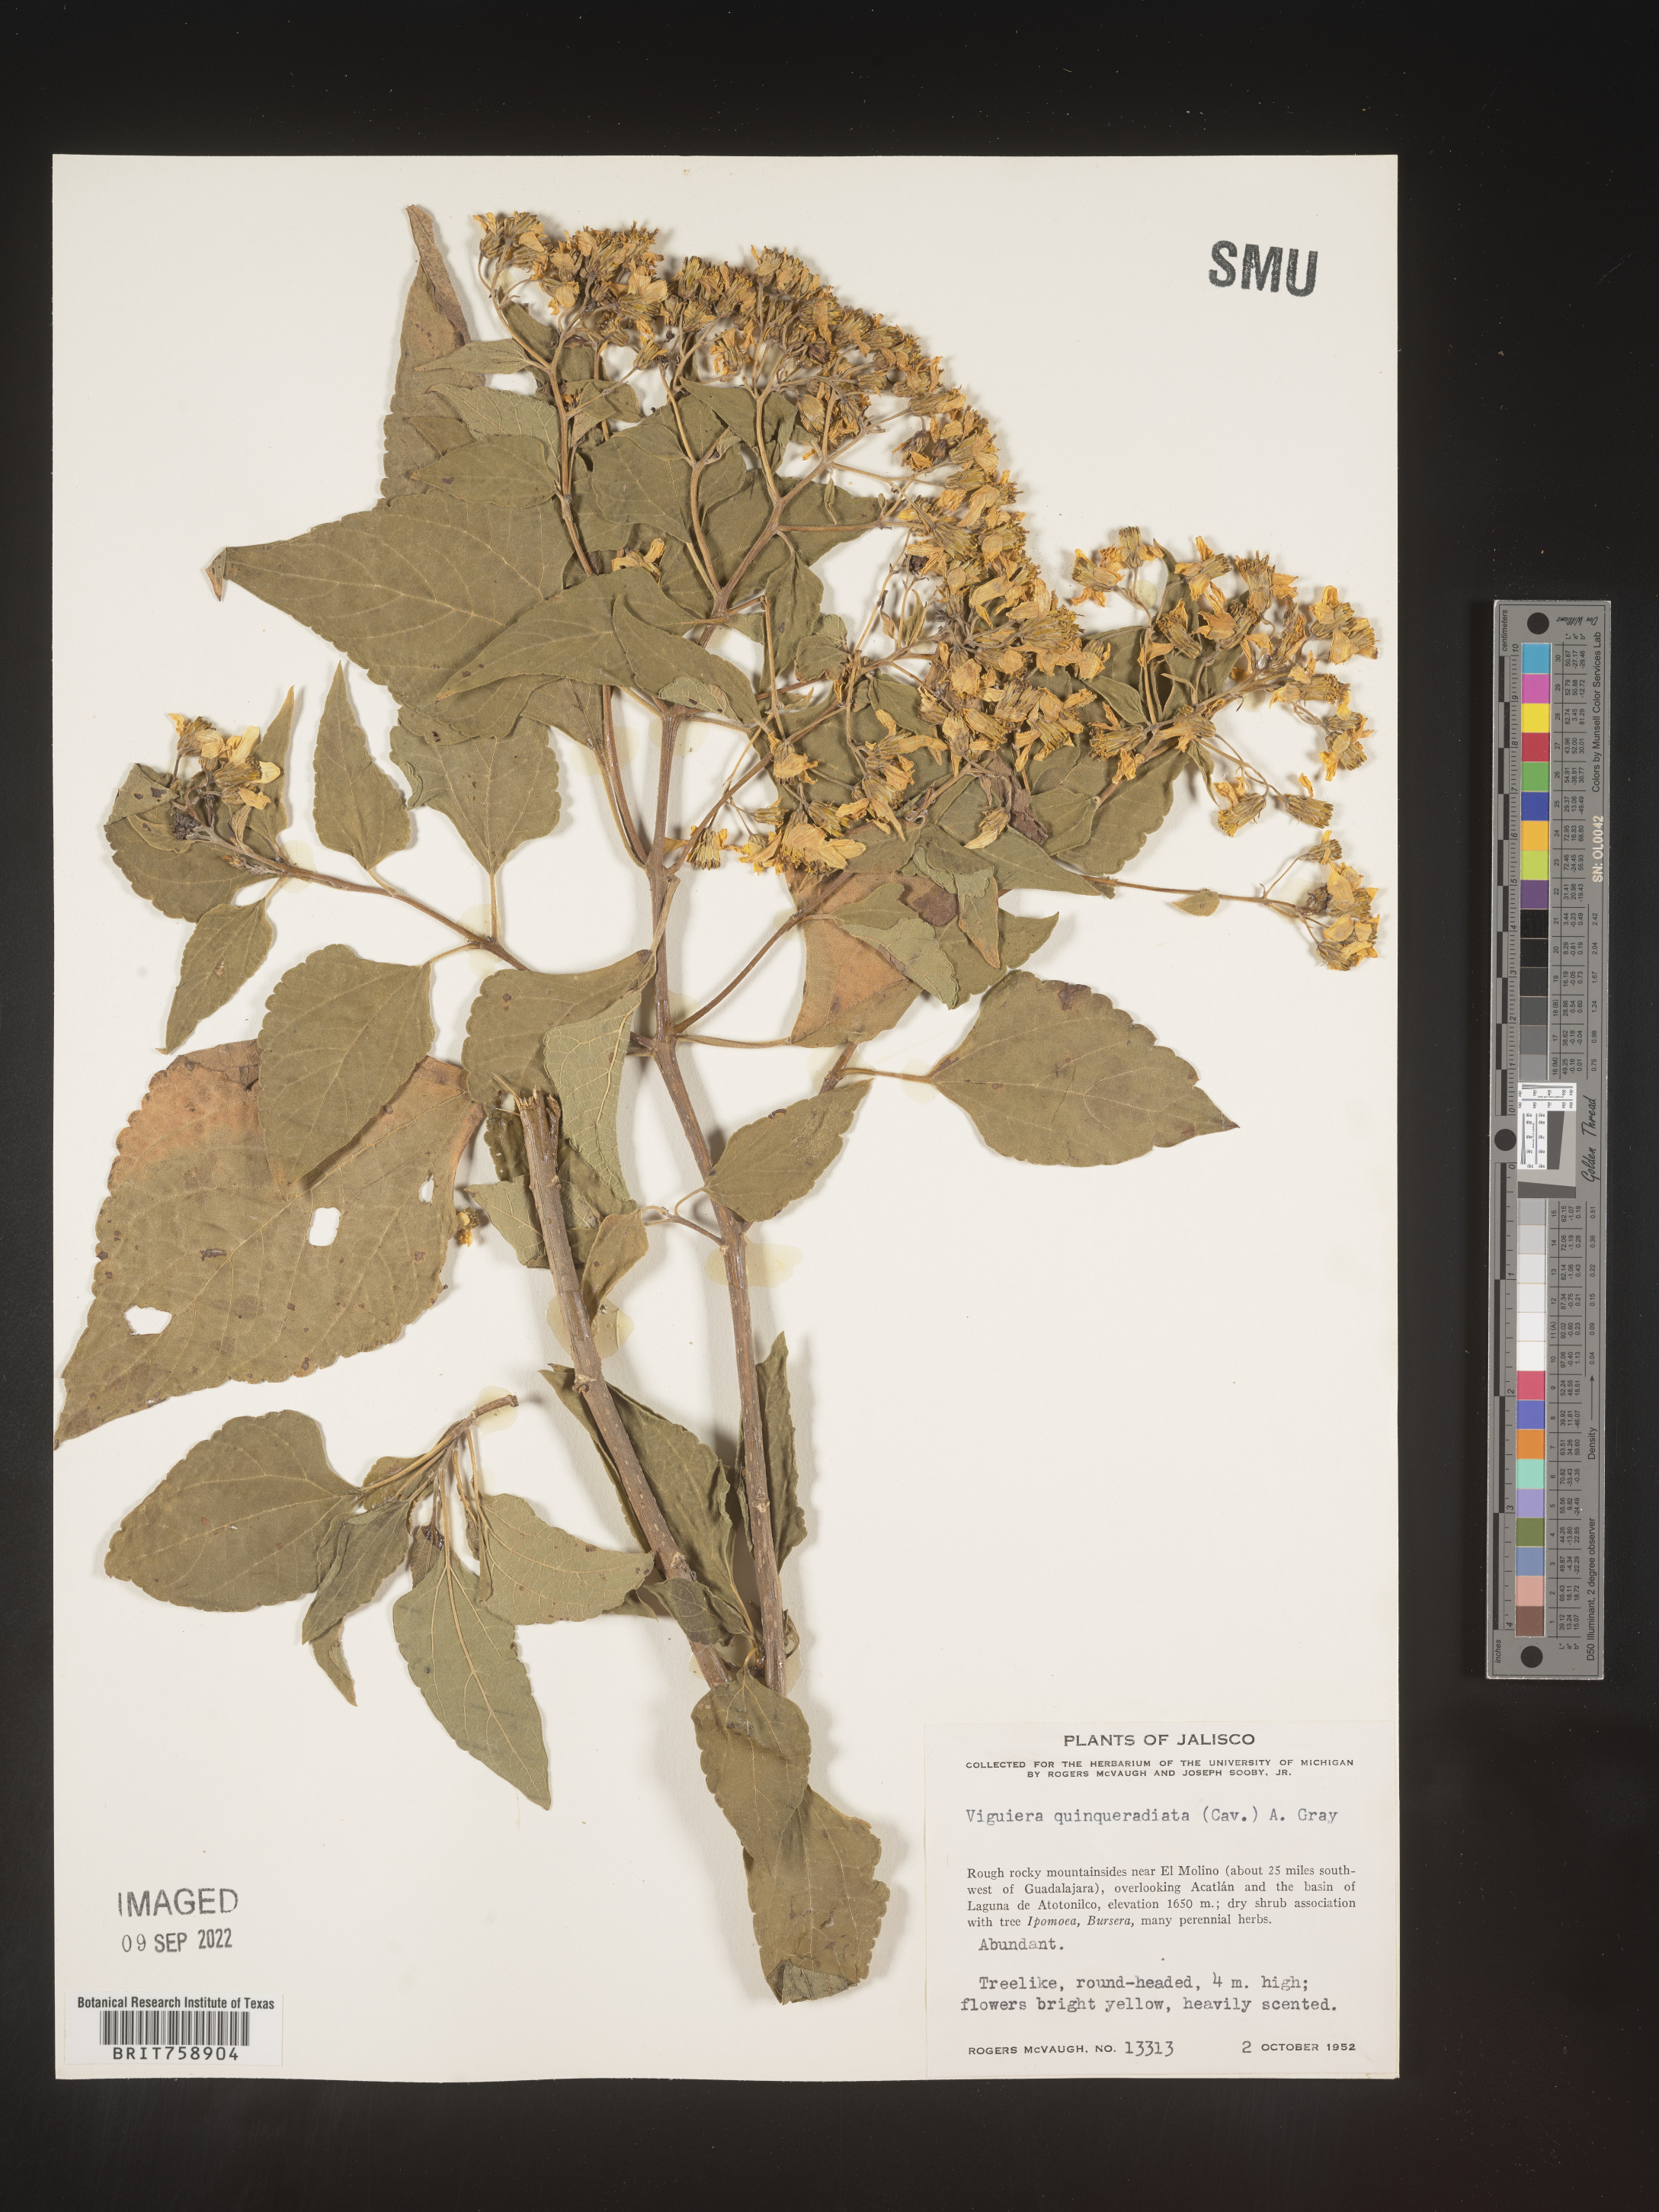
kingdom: Plantae
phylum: Tracheophyta
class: Magnoliopsida
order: Asterales
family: Asteraceae
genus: Viguiera
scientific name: Viguiera
